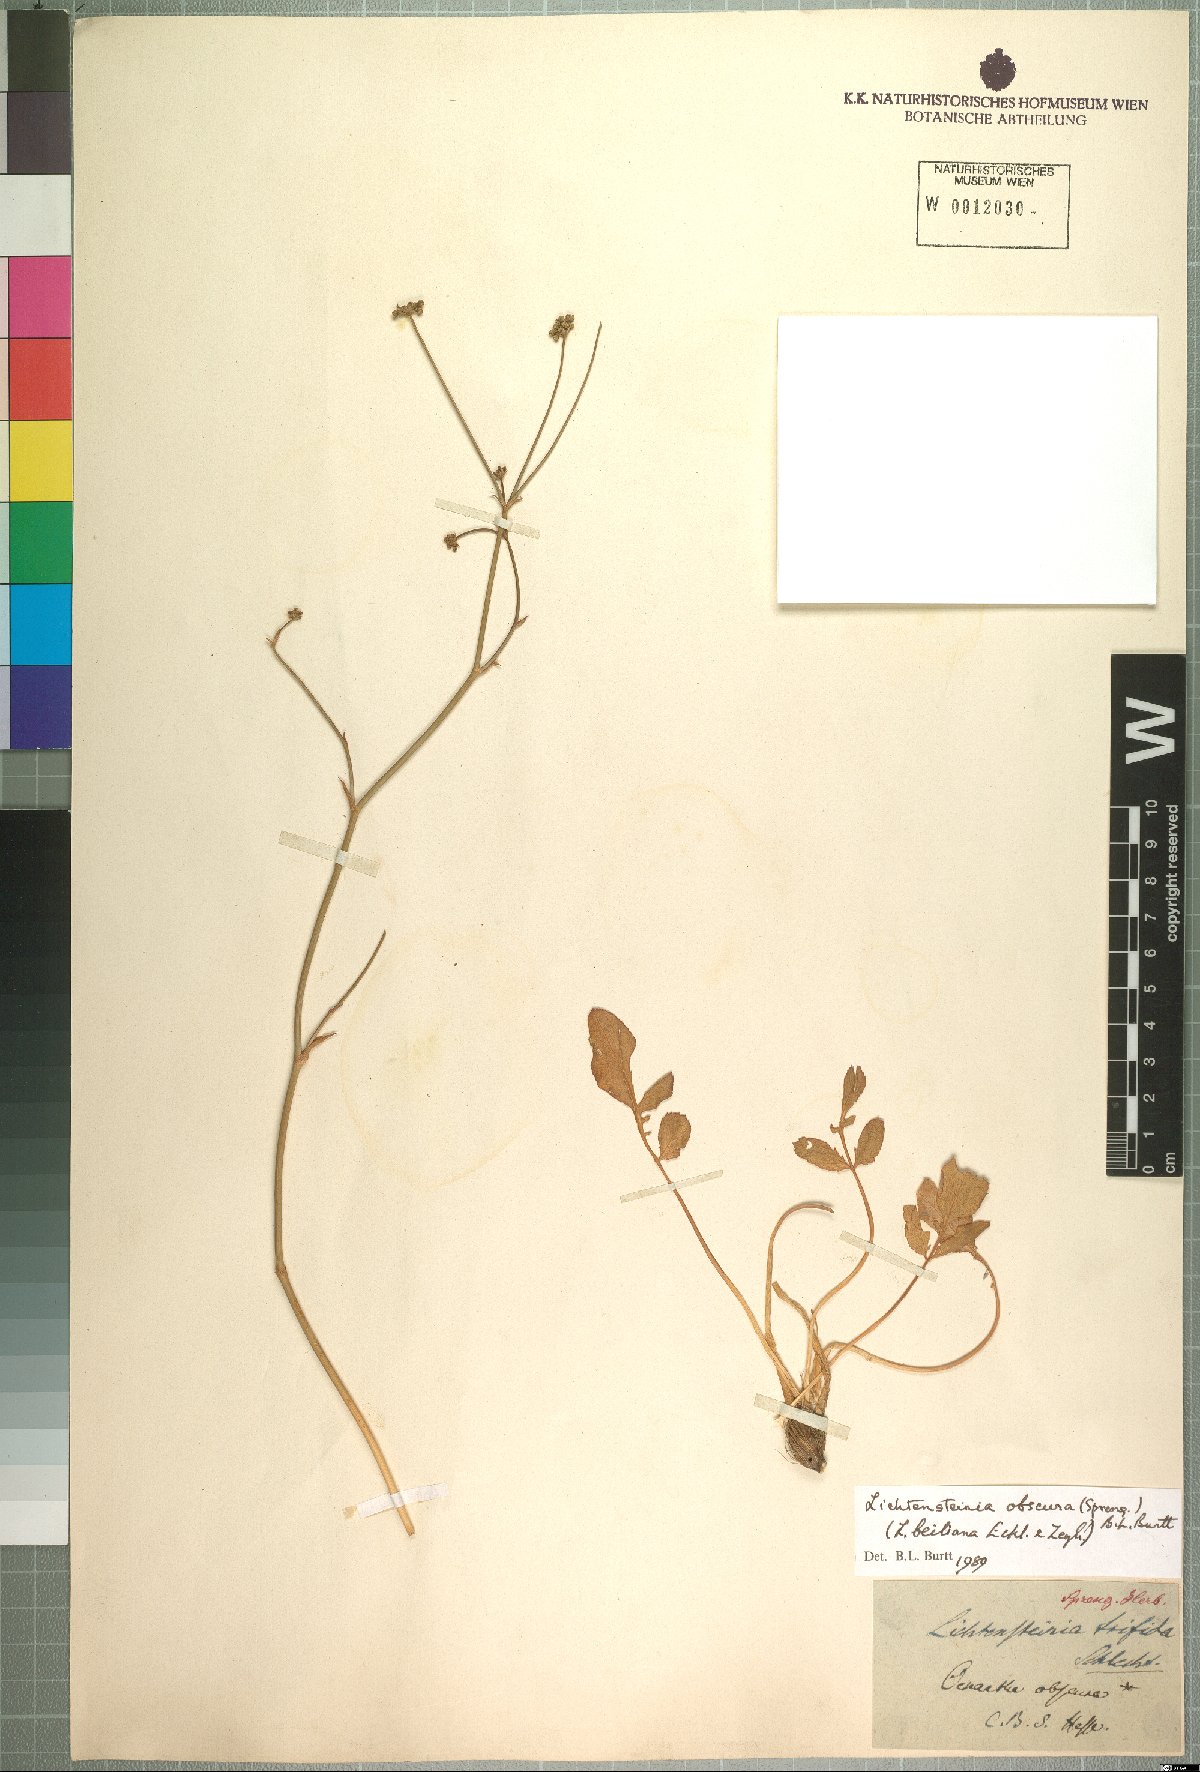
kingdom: Plantae
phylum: Tracheophyta
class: Magnoliopsida
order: Apiales
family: Apiaceae
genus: Lichtensteinia
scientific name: Lichtensteinia obscura
